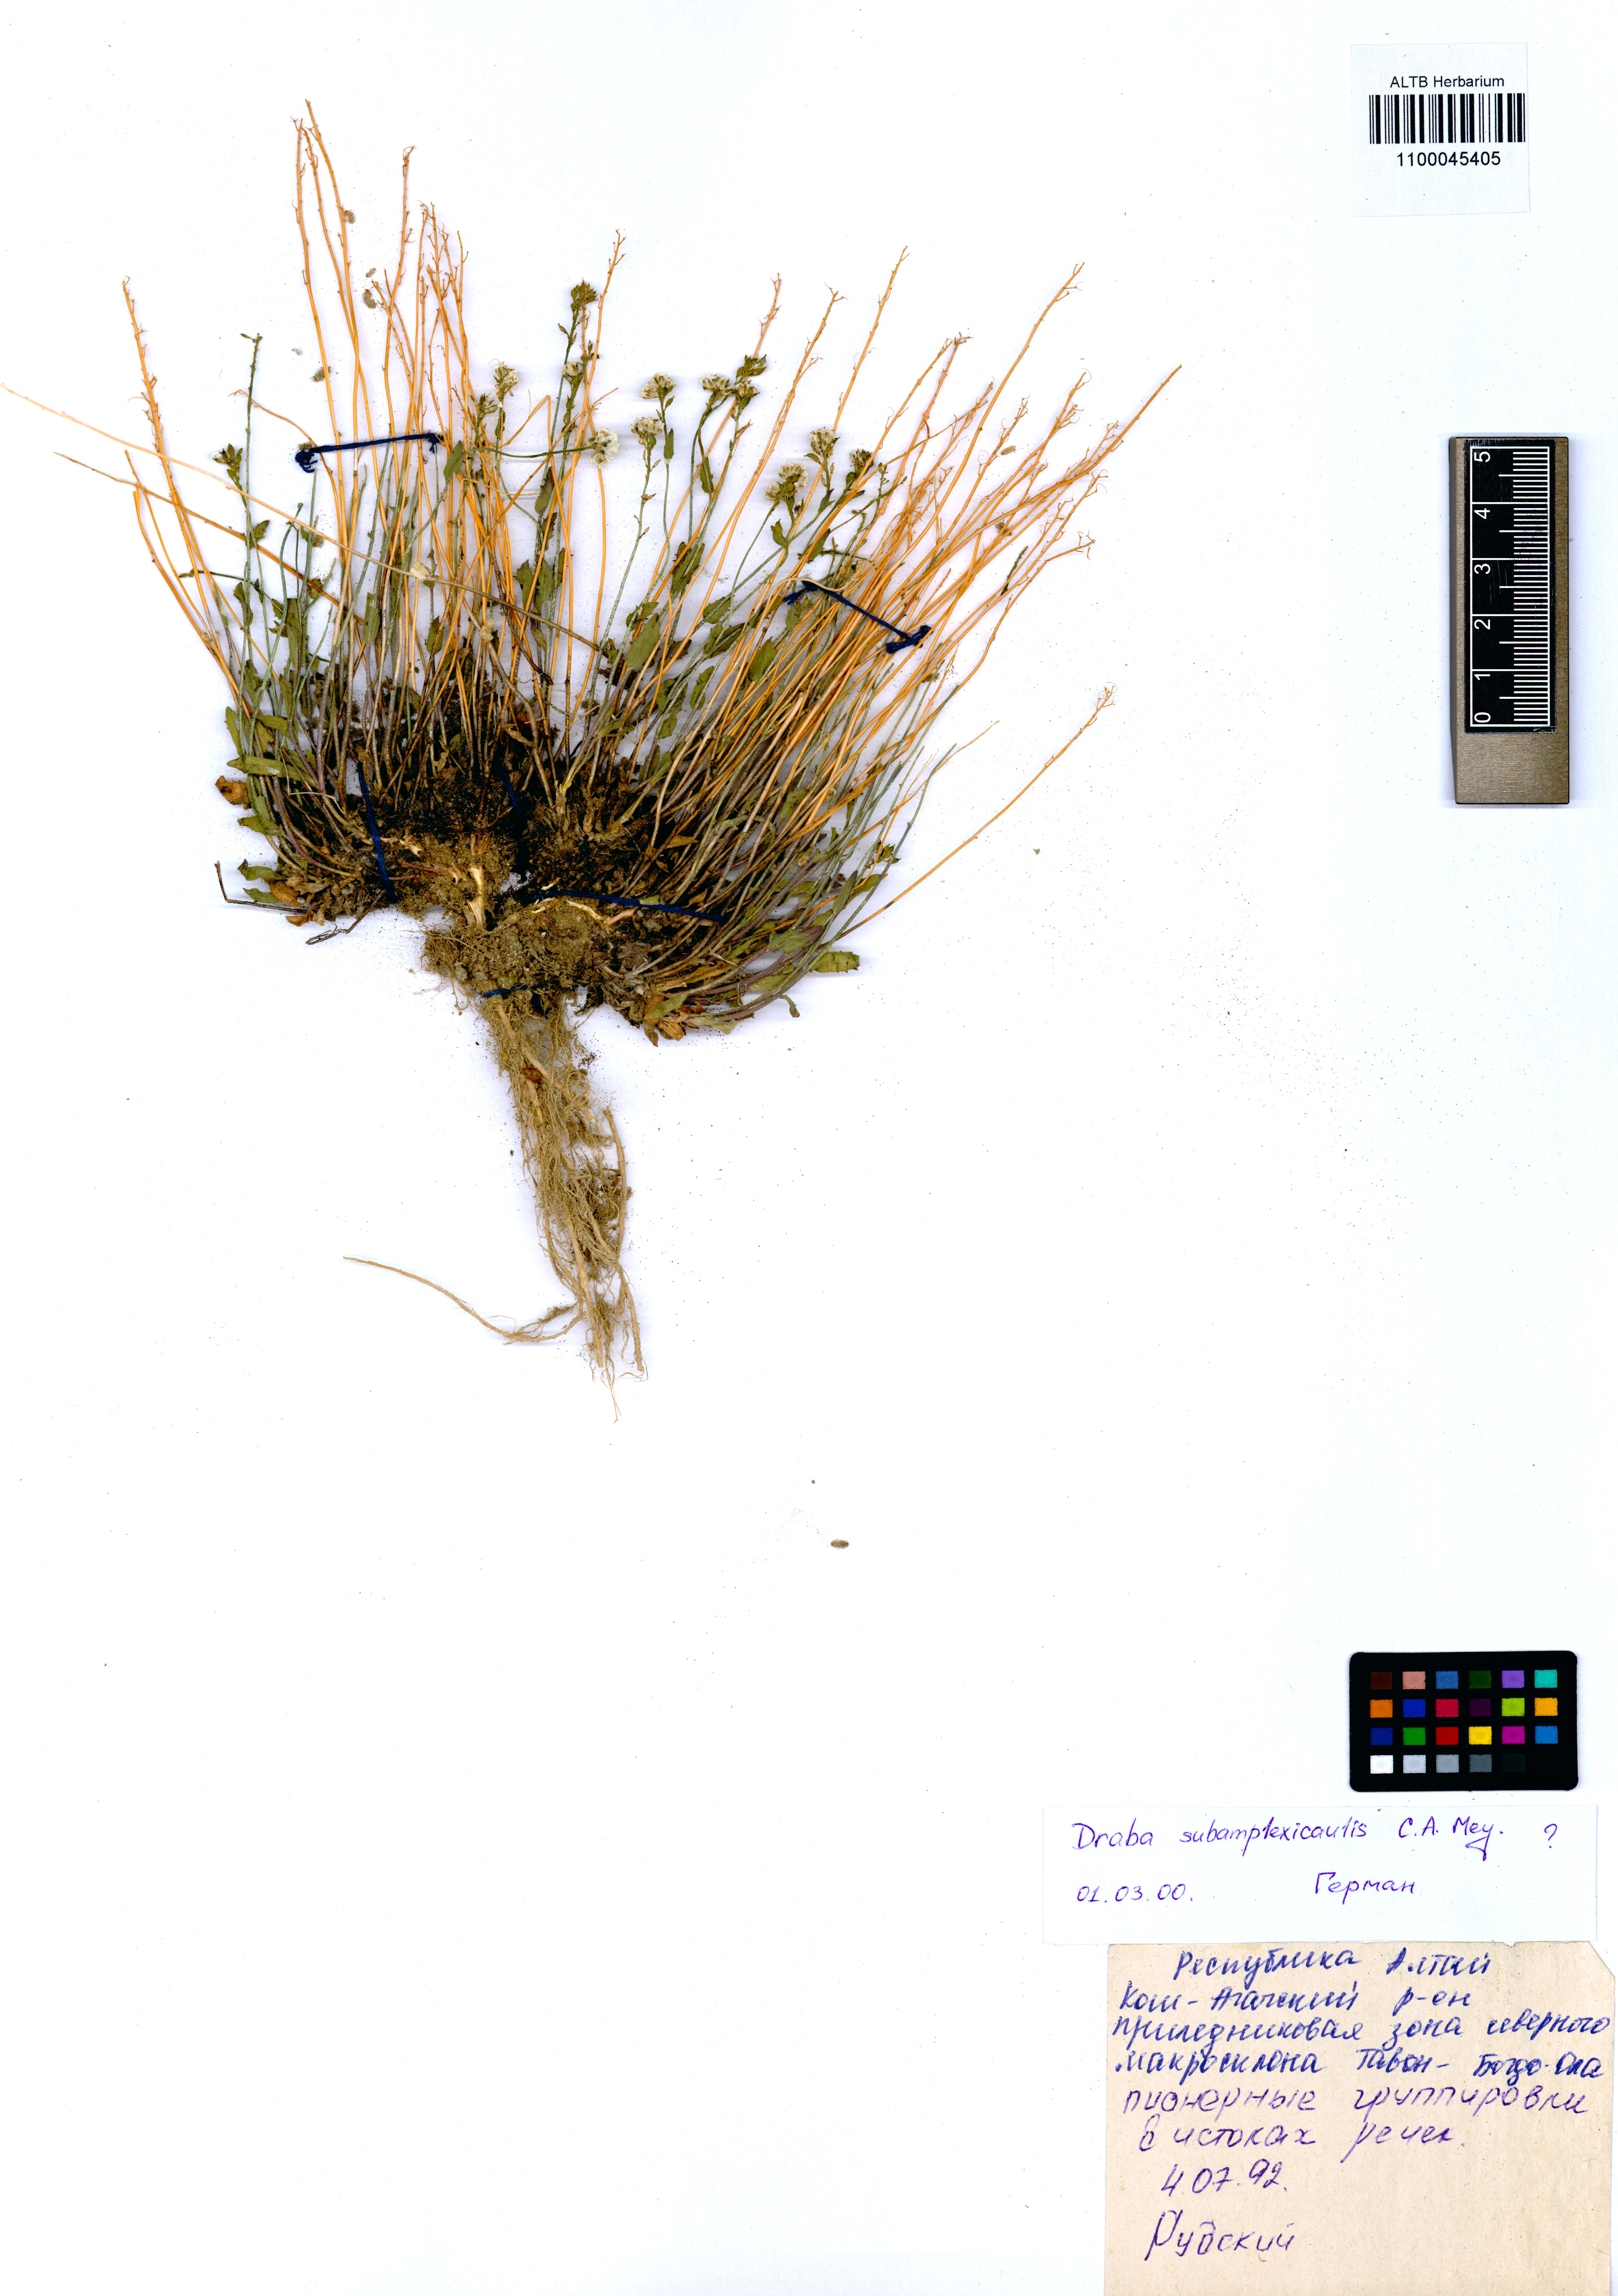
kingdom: Plantae
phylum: Tracheophyta
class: Magnoliopsida
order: Brassicales
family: Brassicaceae
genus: Draba
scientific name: Draba subamplexicaulis
